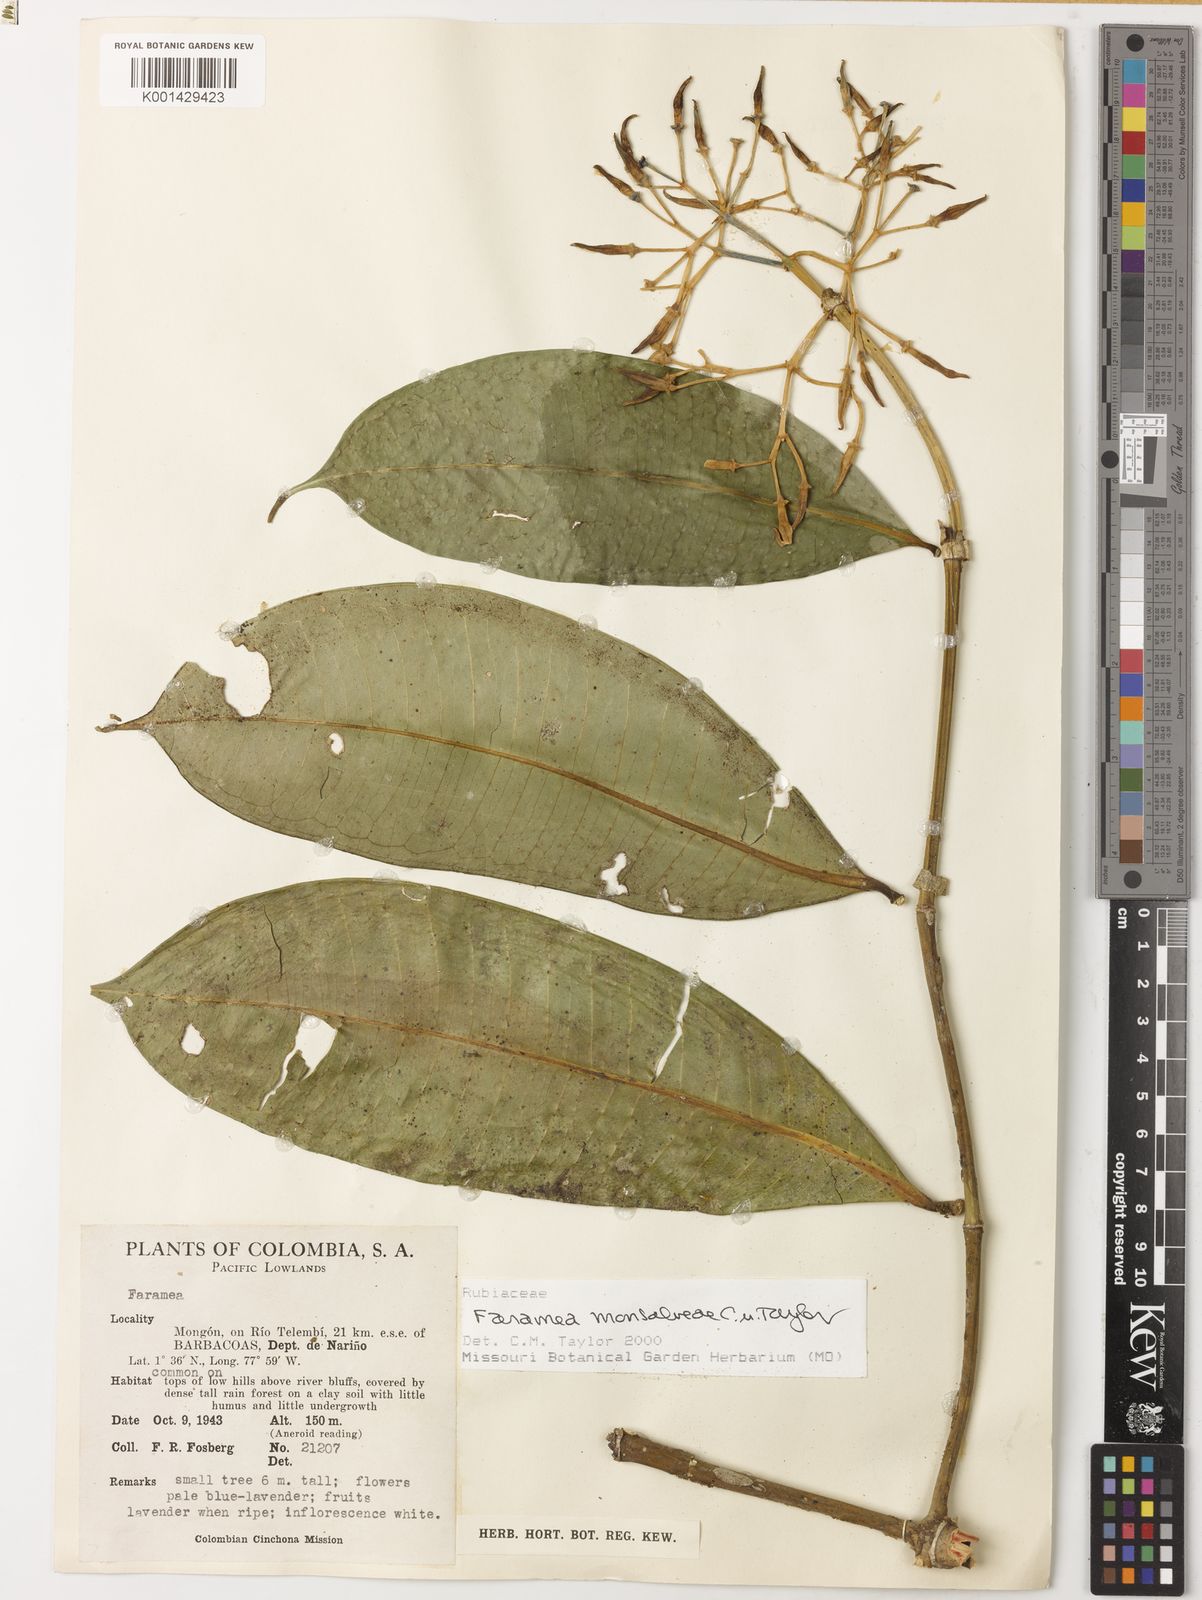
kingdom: Plantae
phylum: Tracheophyta
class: Magnoliopsida
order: Gentianales
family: Rubiaceae
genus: Faramea
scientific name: Faramea monsalveae
